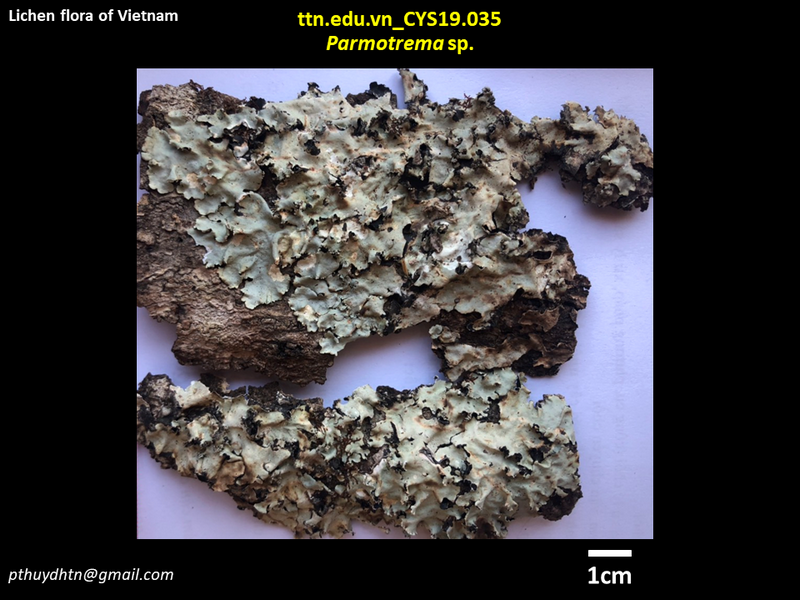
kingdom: Fungi
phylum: Ascomycota
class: Lecanoromycetes
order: Lecanorales
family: Parmeliaceae
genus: Parmotrema
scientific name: Parmotrema
